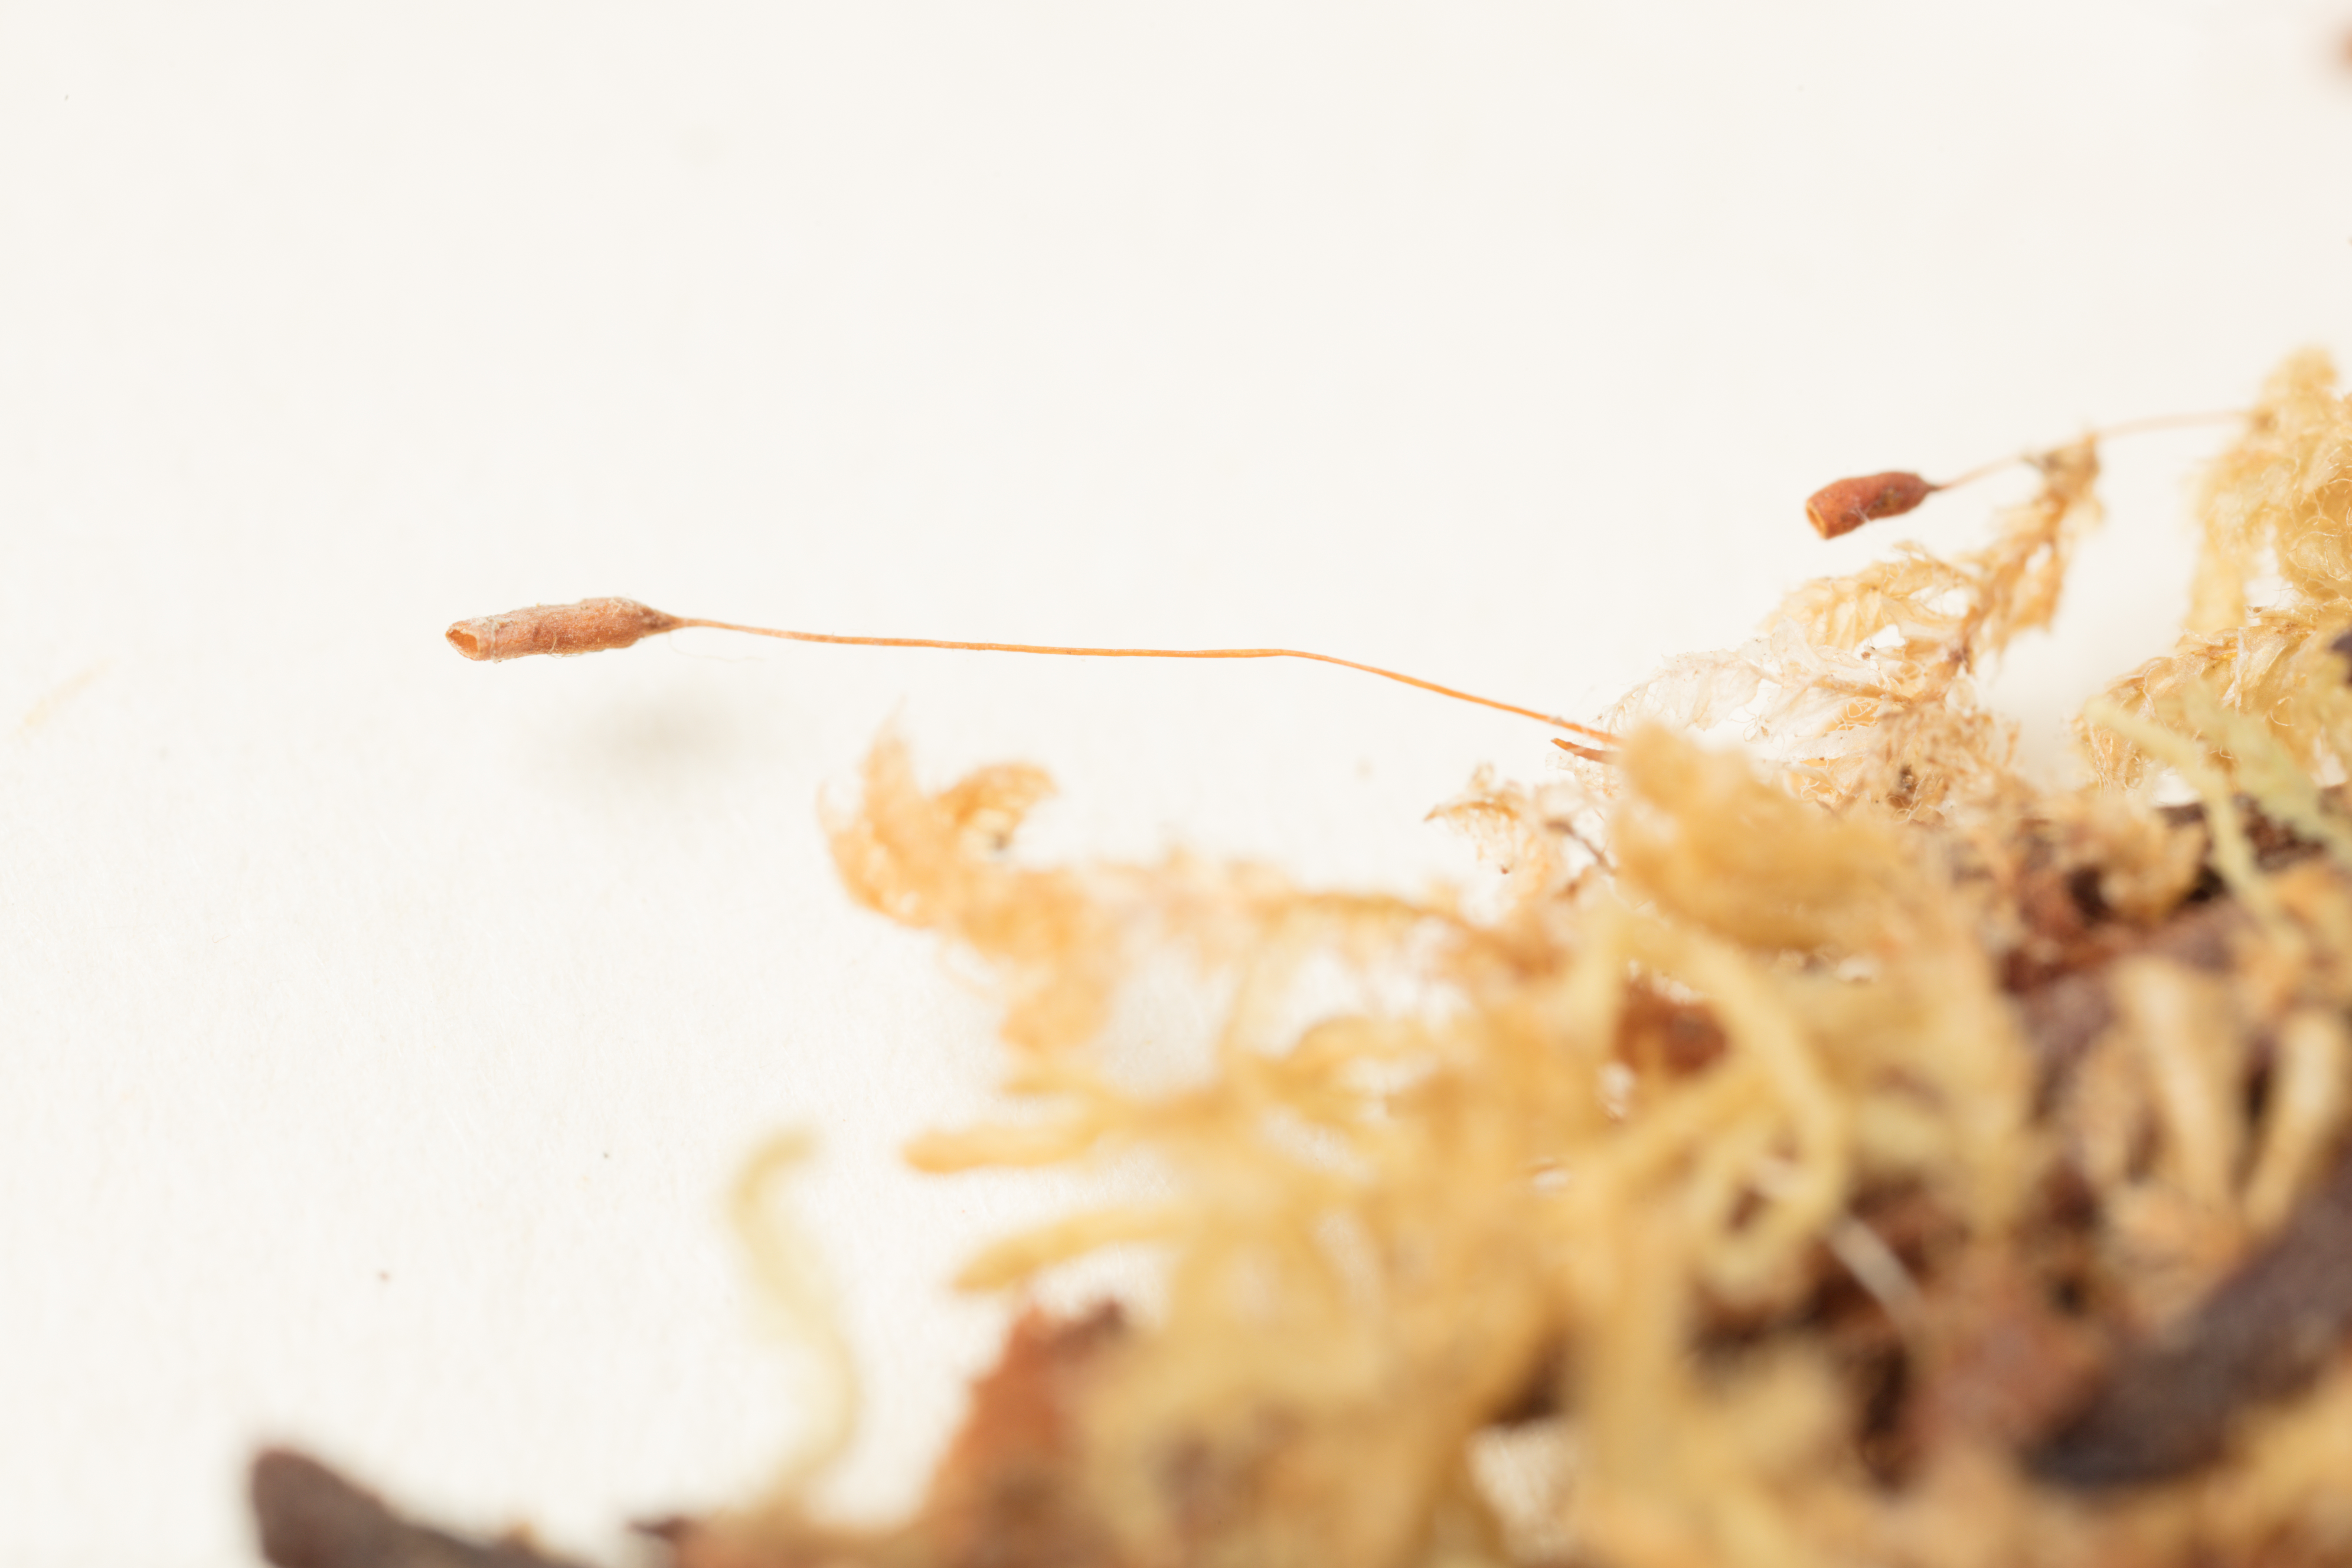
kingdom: Plantae
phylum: Bryophyta
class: Bryopsida
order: Orthodontiales
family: Orthodontiaceae
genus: Hymenodon
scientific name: Hymenodon pilifer
